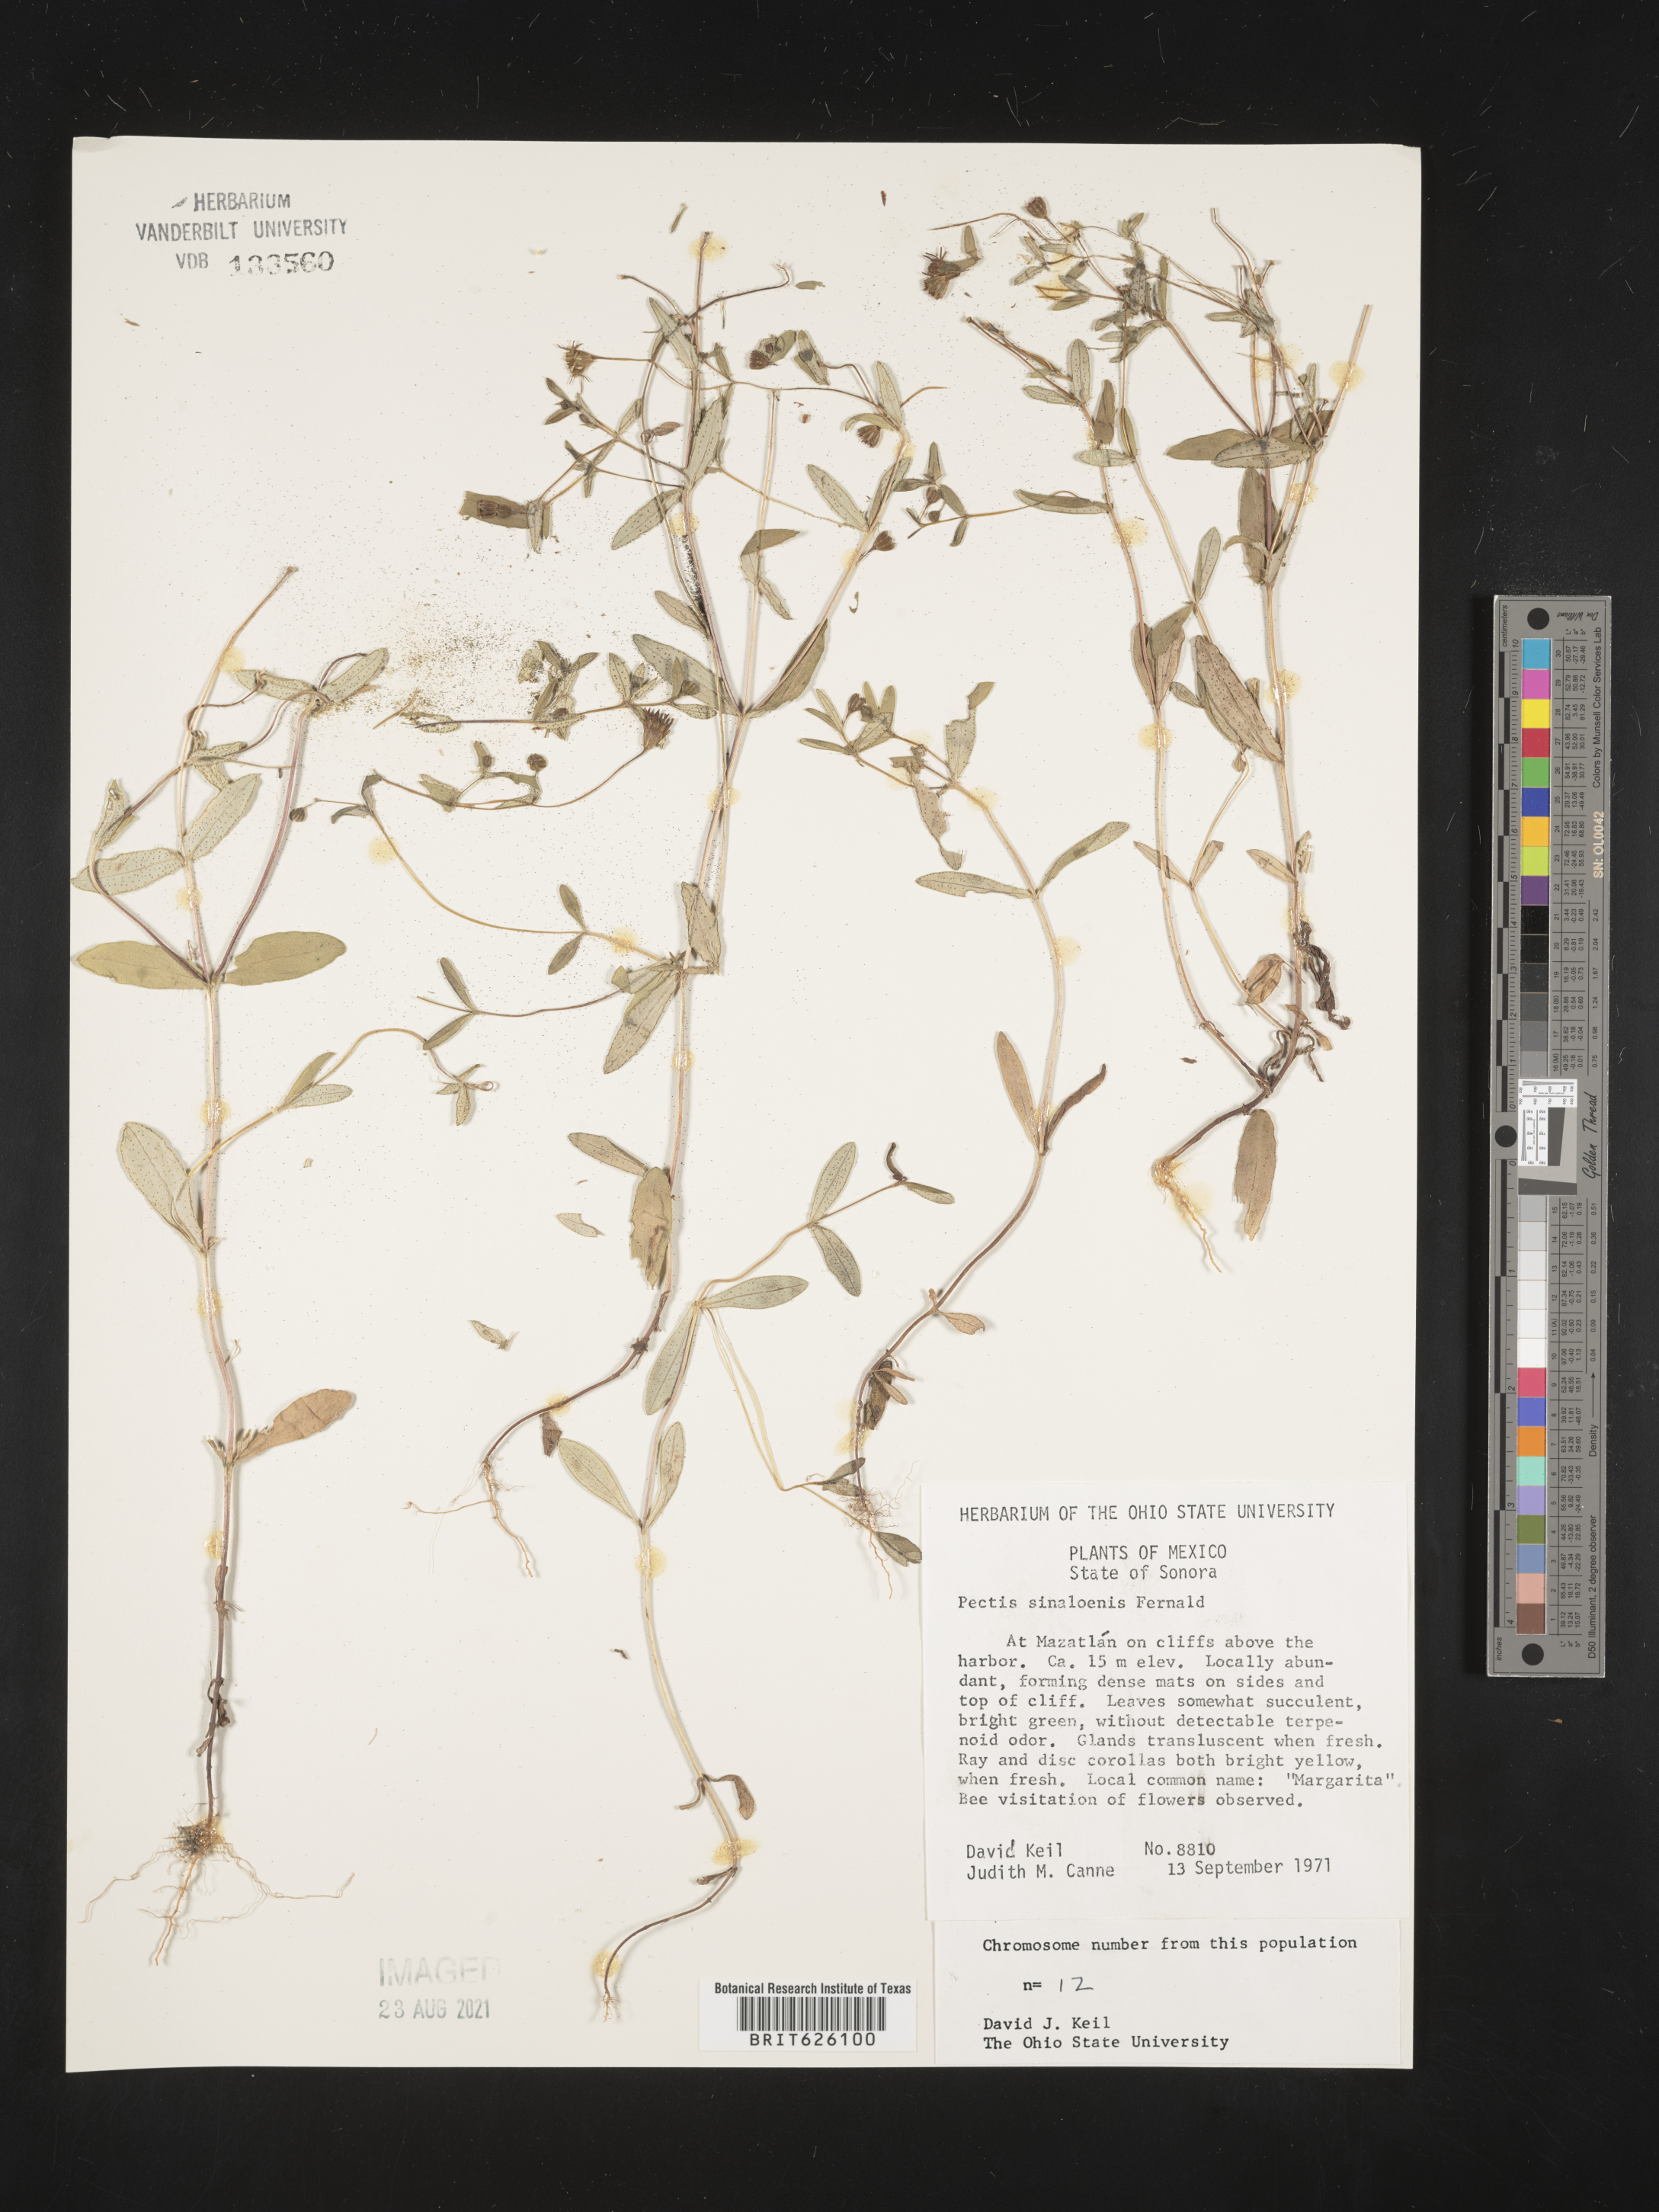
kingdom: Plantae
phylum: Tracheophyta
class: Magnoliopsida
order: Asterales
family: Asteraceae
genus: Pectis
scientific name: Pectis
